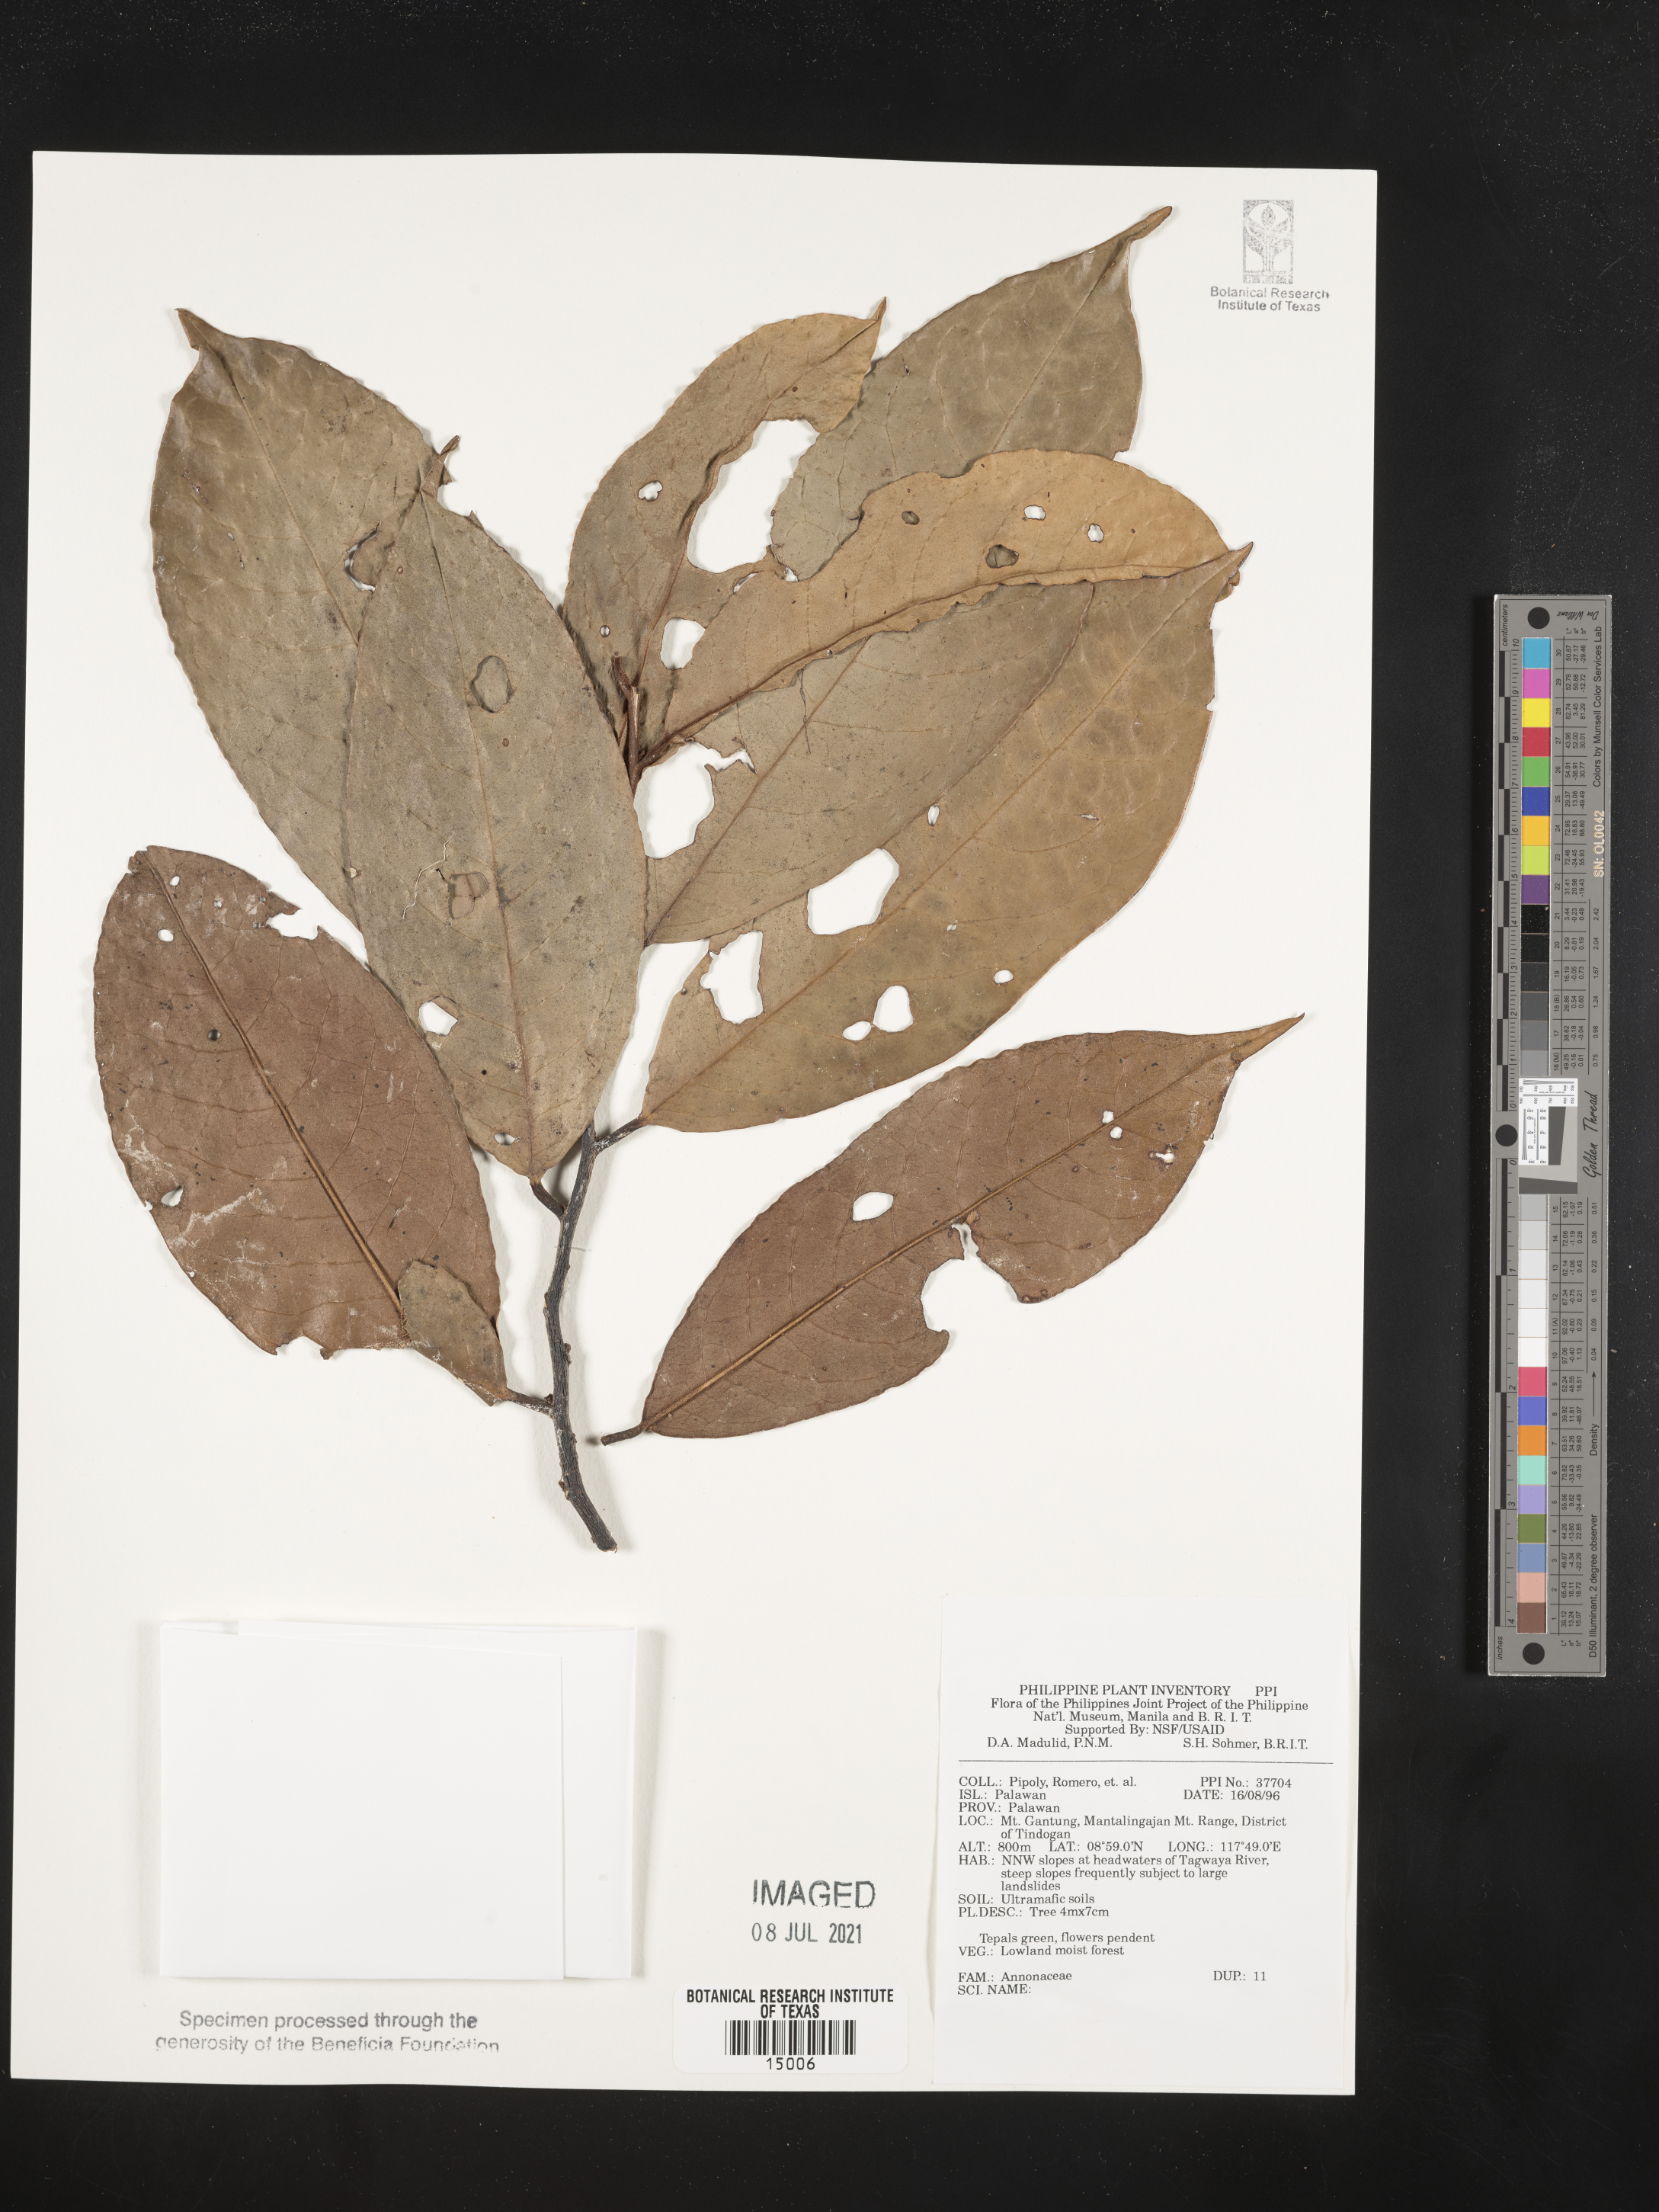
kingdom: Plantae
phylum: Tracheophyta
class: Magnoliopsida
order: Magnoliales
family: Annonaceae
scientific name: Annonaceae
